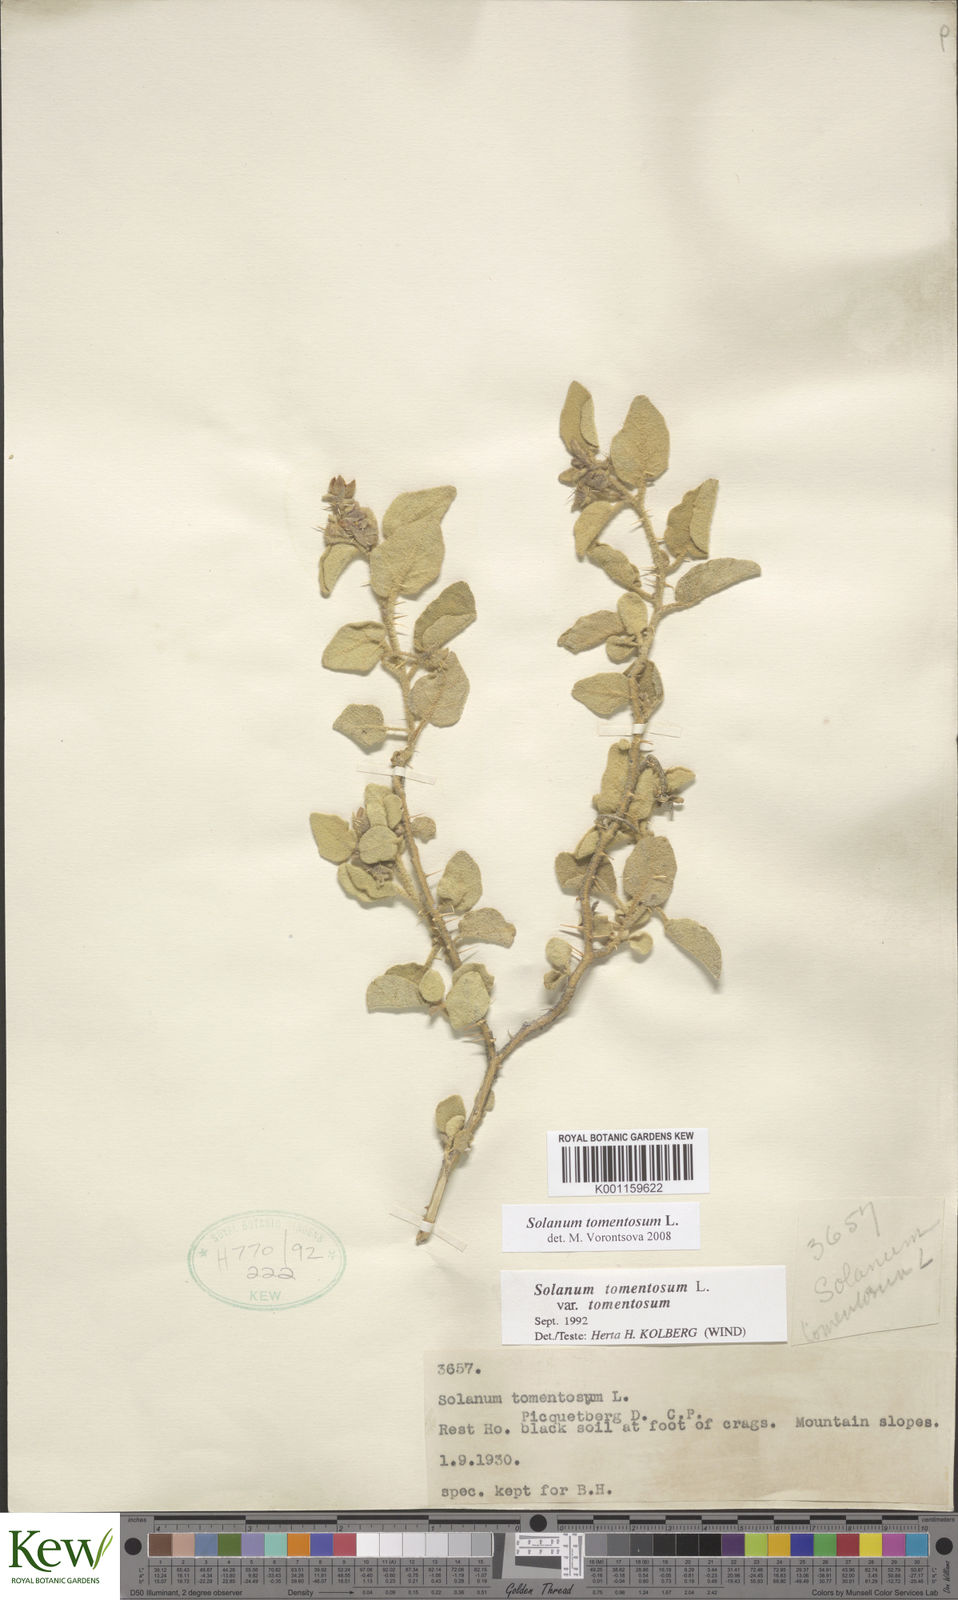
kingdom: Plantae
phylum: Tracheophyta
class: Magnoliopsida
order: Solanales
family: Solanaceae
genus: Solanum
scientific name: Solanum tomentosum
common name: Wild aubergine
